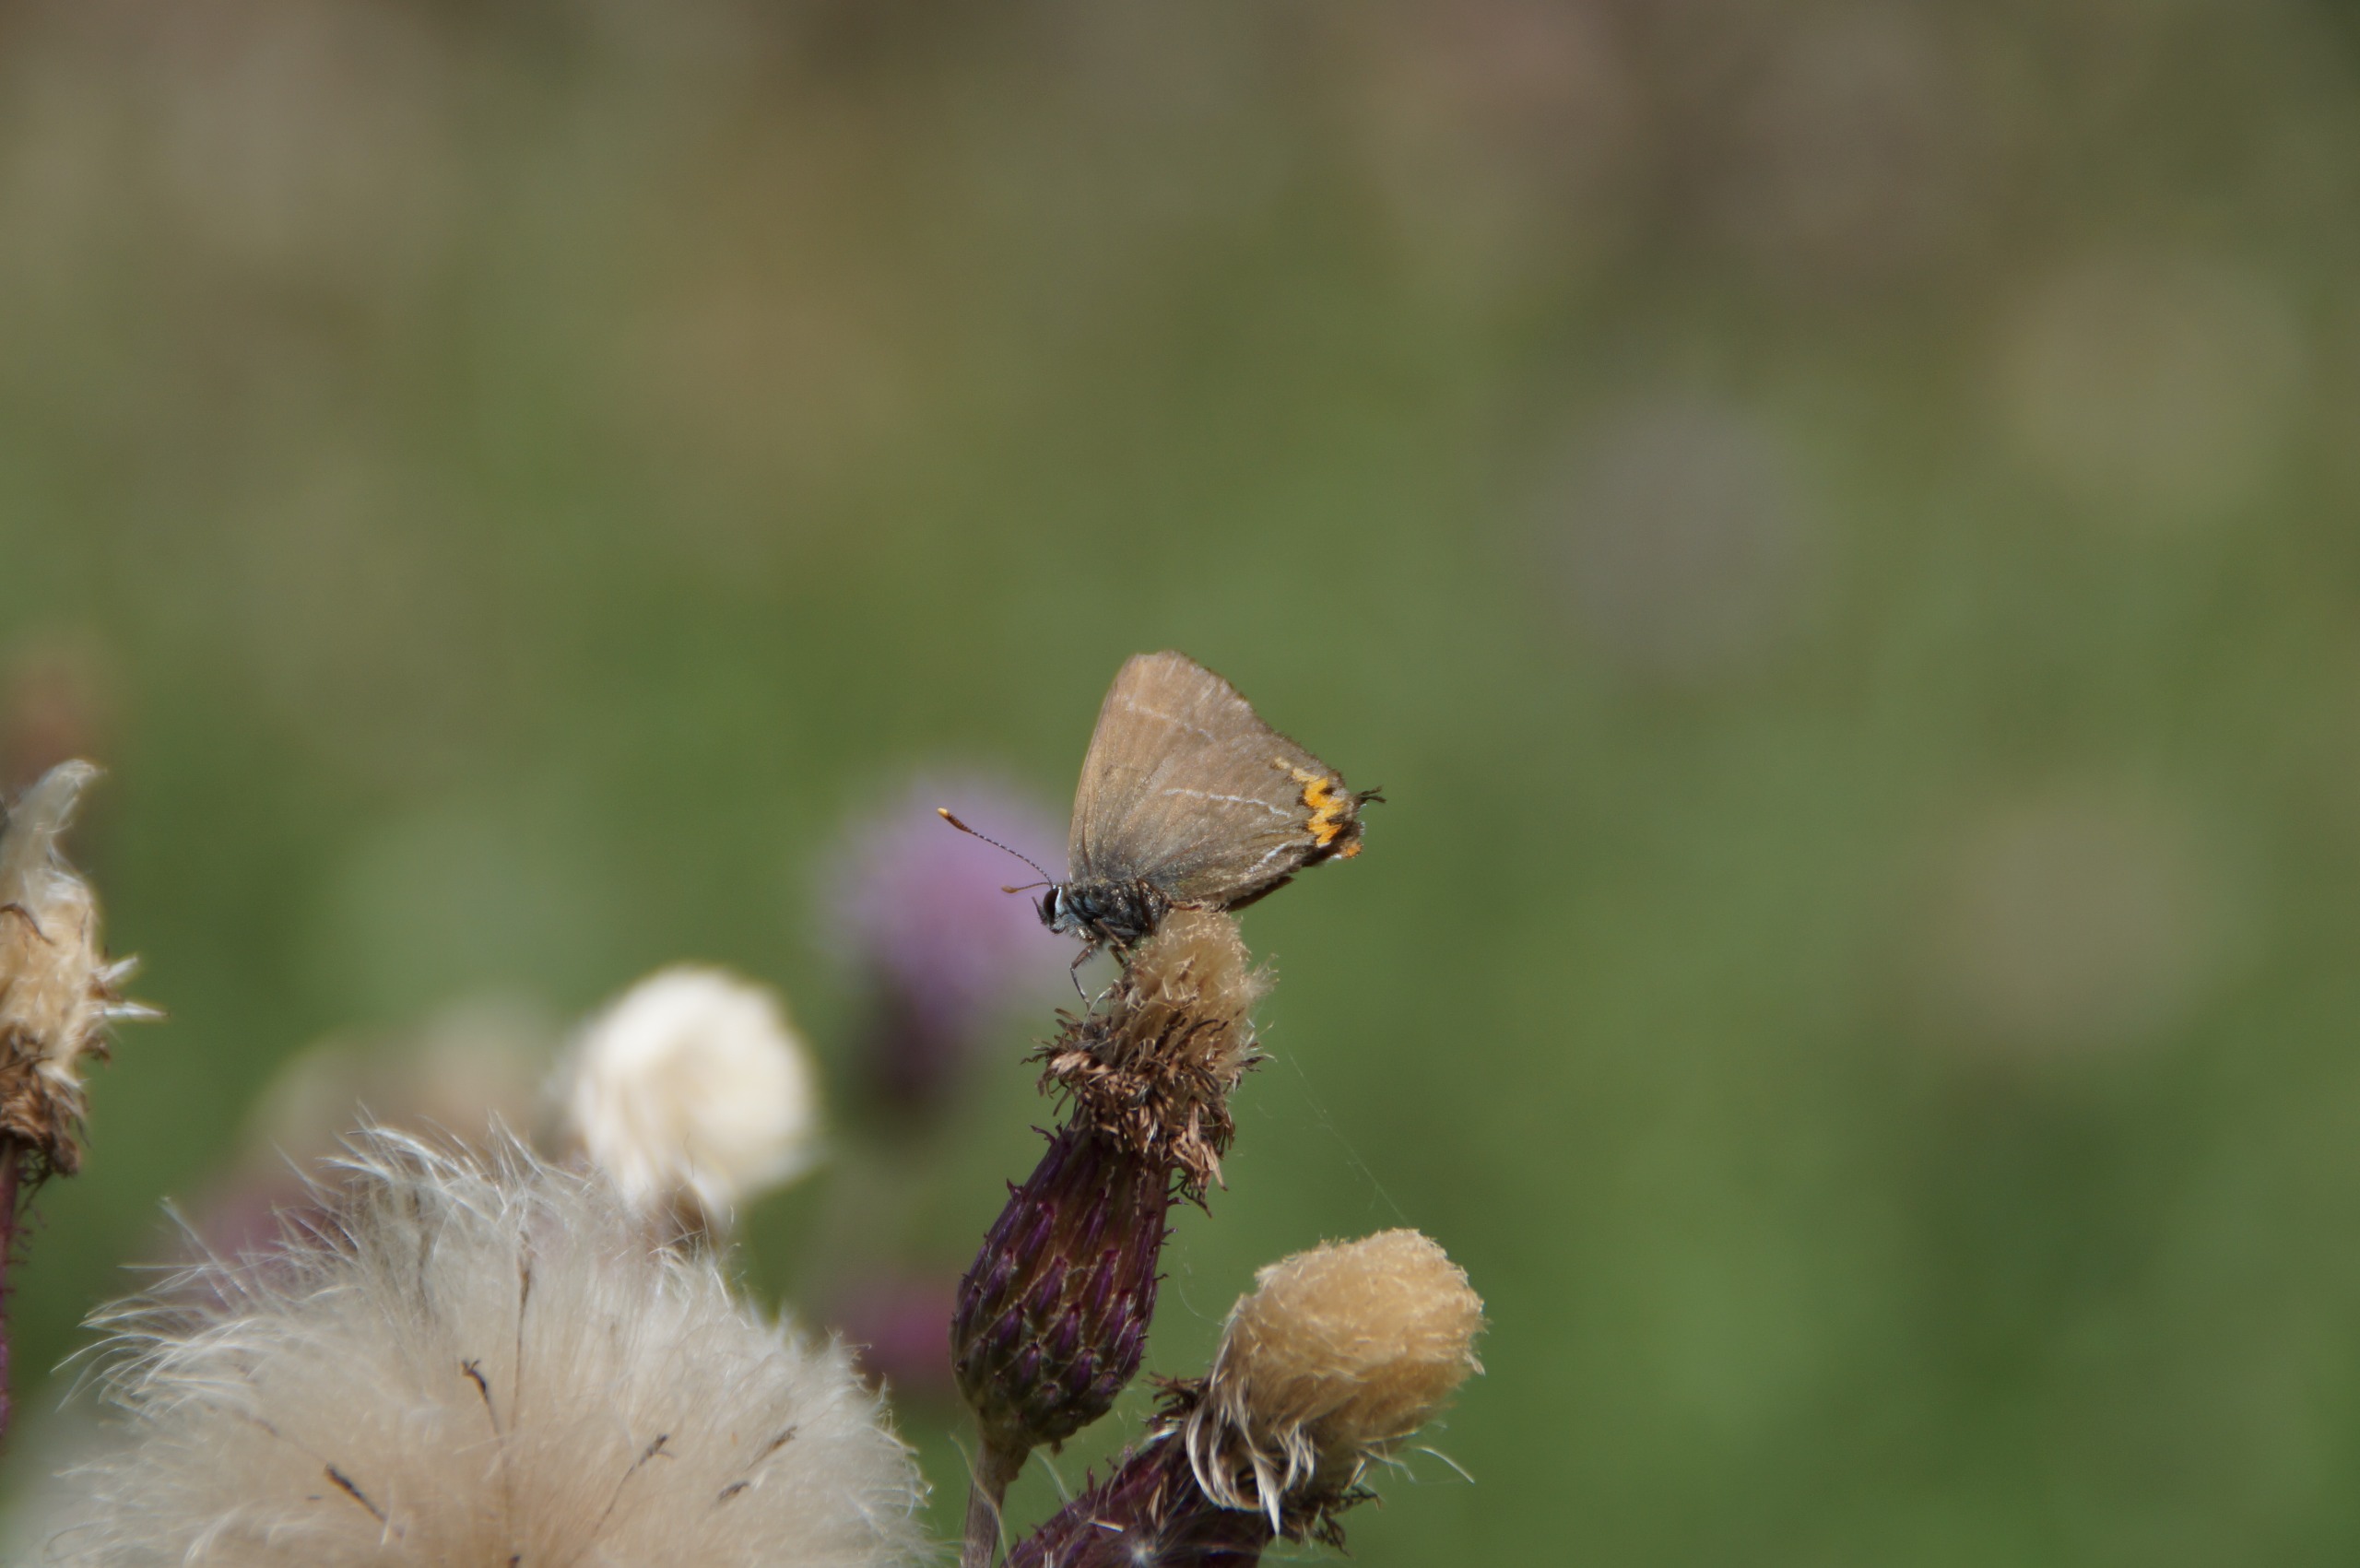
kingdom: Animalia
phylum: Arthropoda
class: Insecta
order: Lepidoptera
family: Lycaenidae
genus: Satyrium
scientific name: Satyrium w-album
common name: Det hvide W
